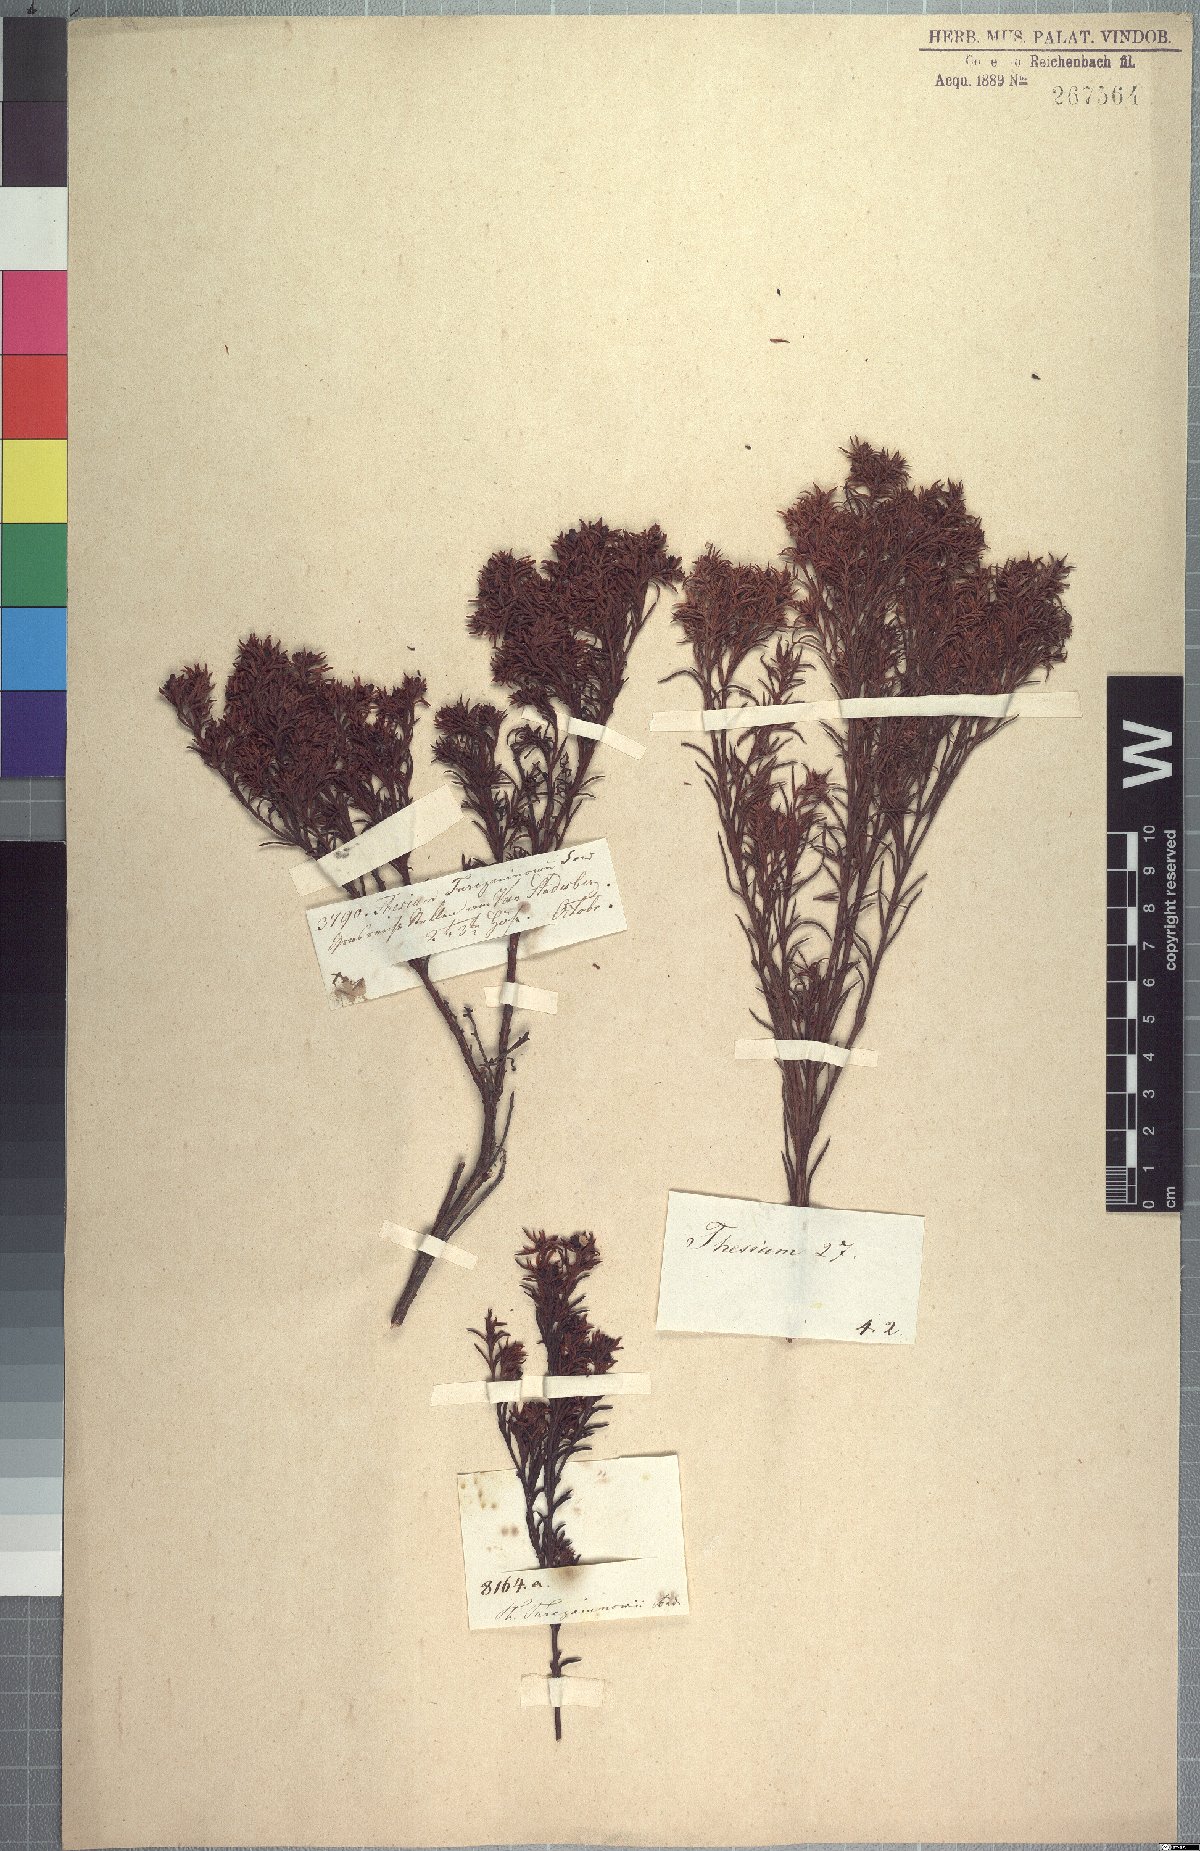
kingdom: Plantae
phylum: Tracheophyta
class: Magnoliopsida
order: Santalales
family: Thesiaceae
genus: Thesium
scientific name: Thesium foliosum
